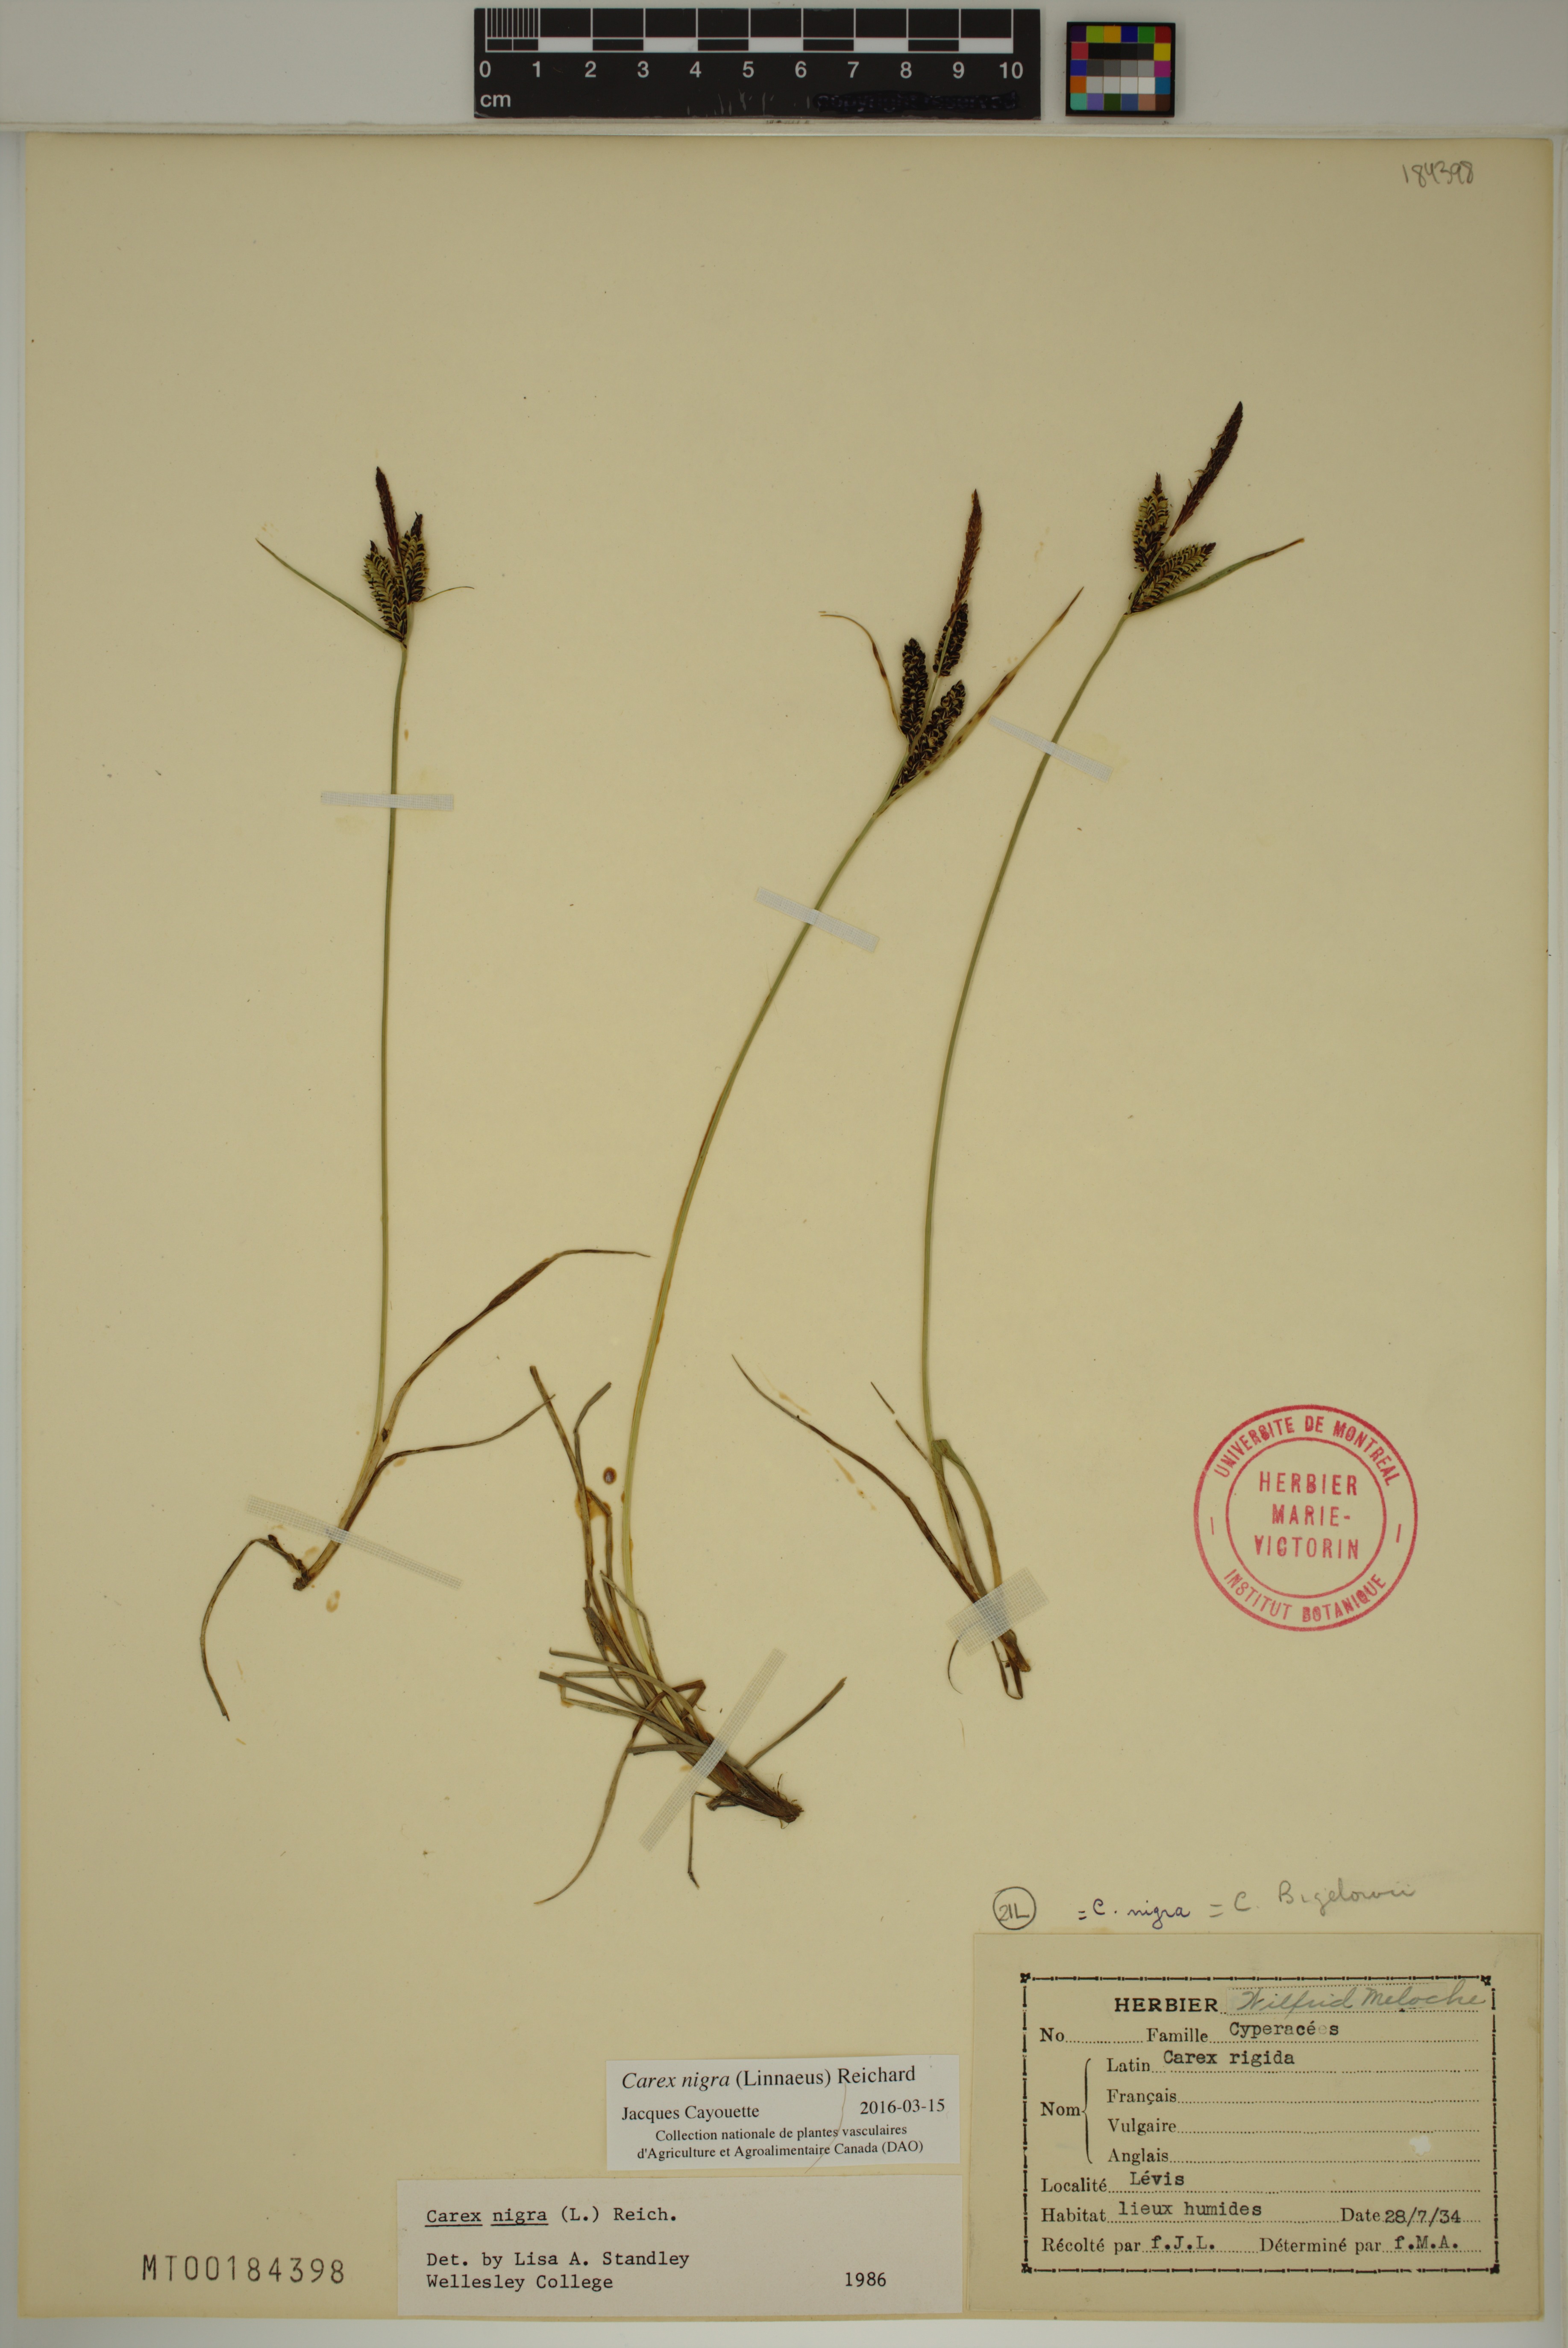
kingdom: Plantae
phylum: Tracheophyta
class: Liliopsida
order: Poales
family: Cyperaceae
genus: Carex
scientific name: Carex nigra
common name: Common sedge
